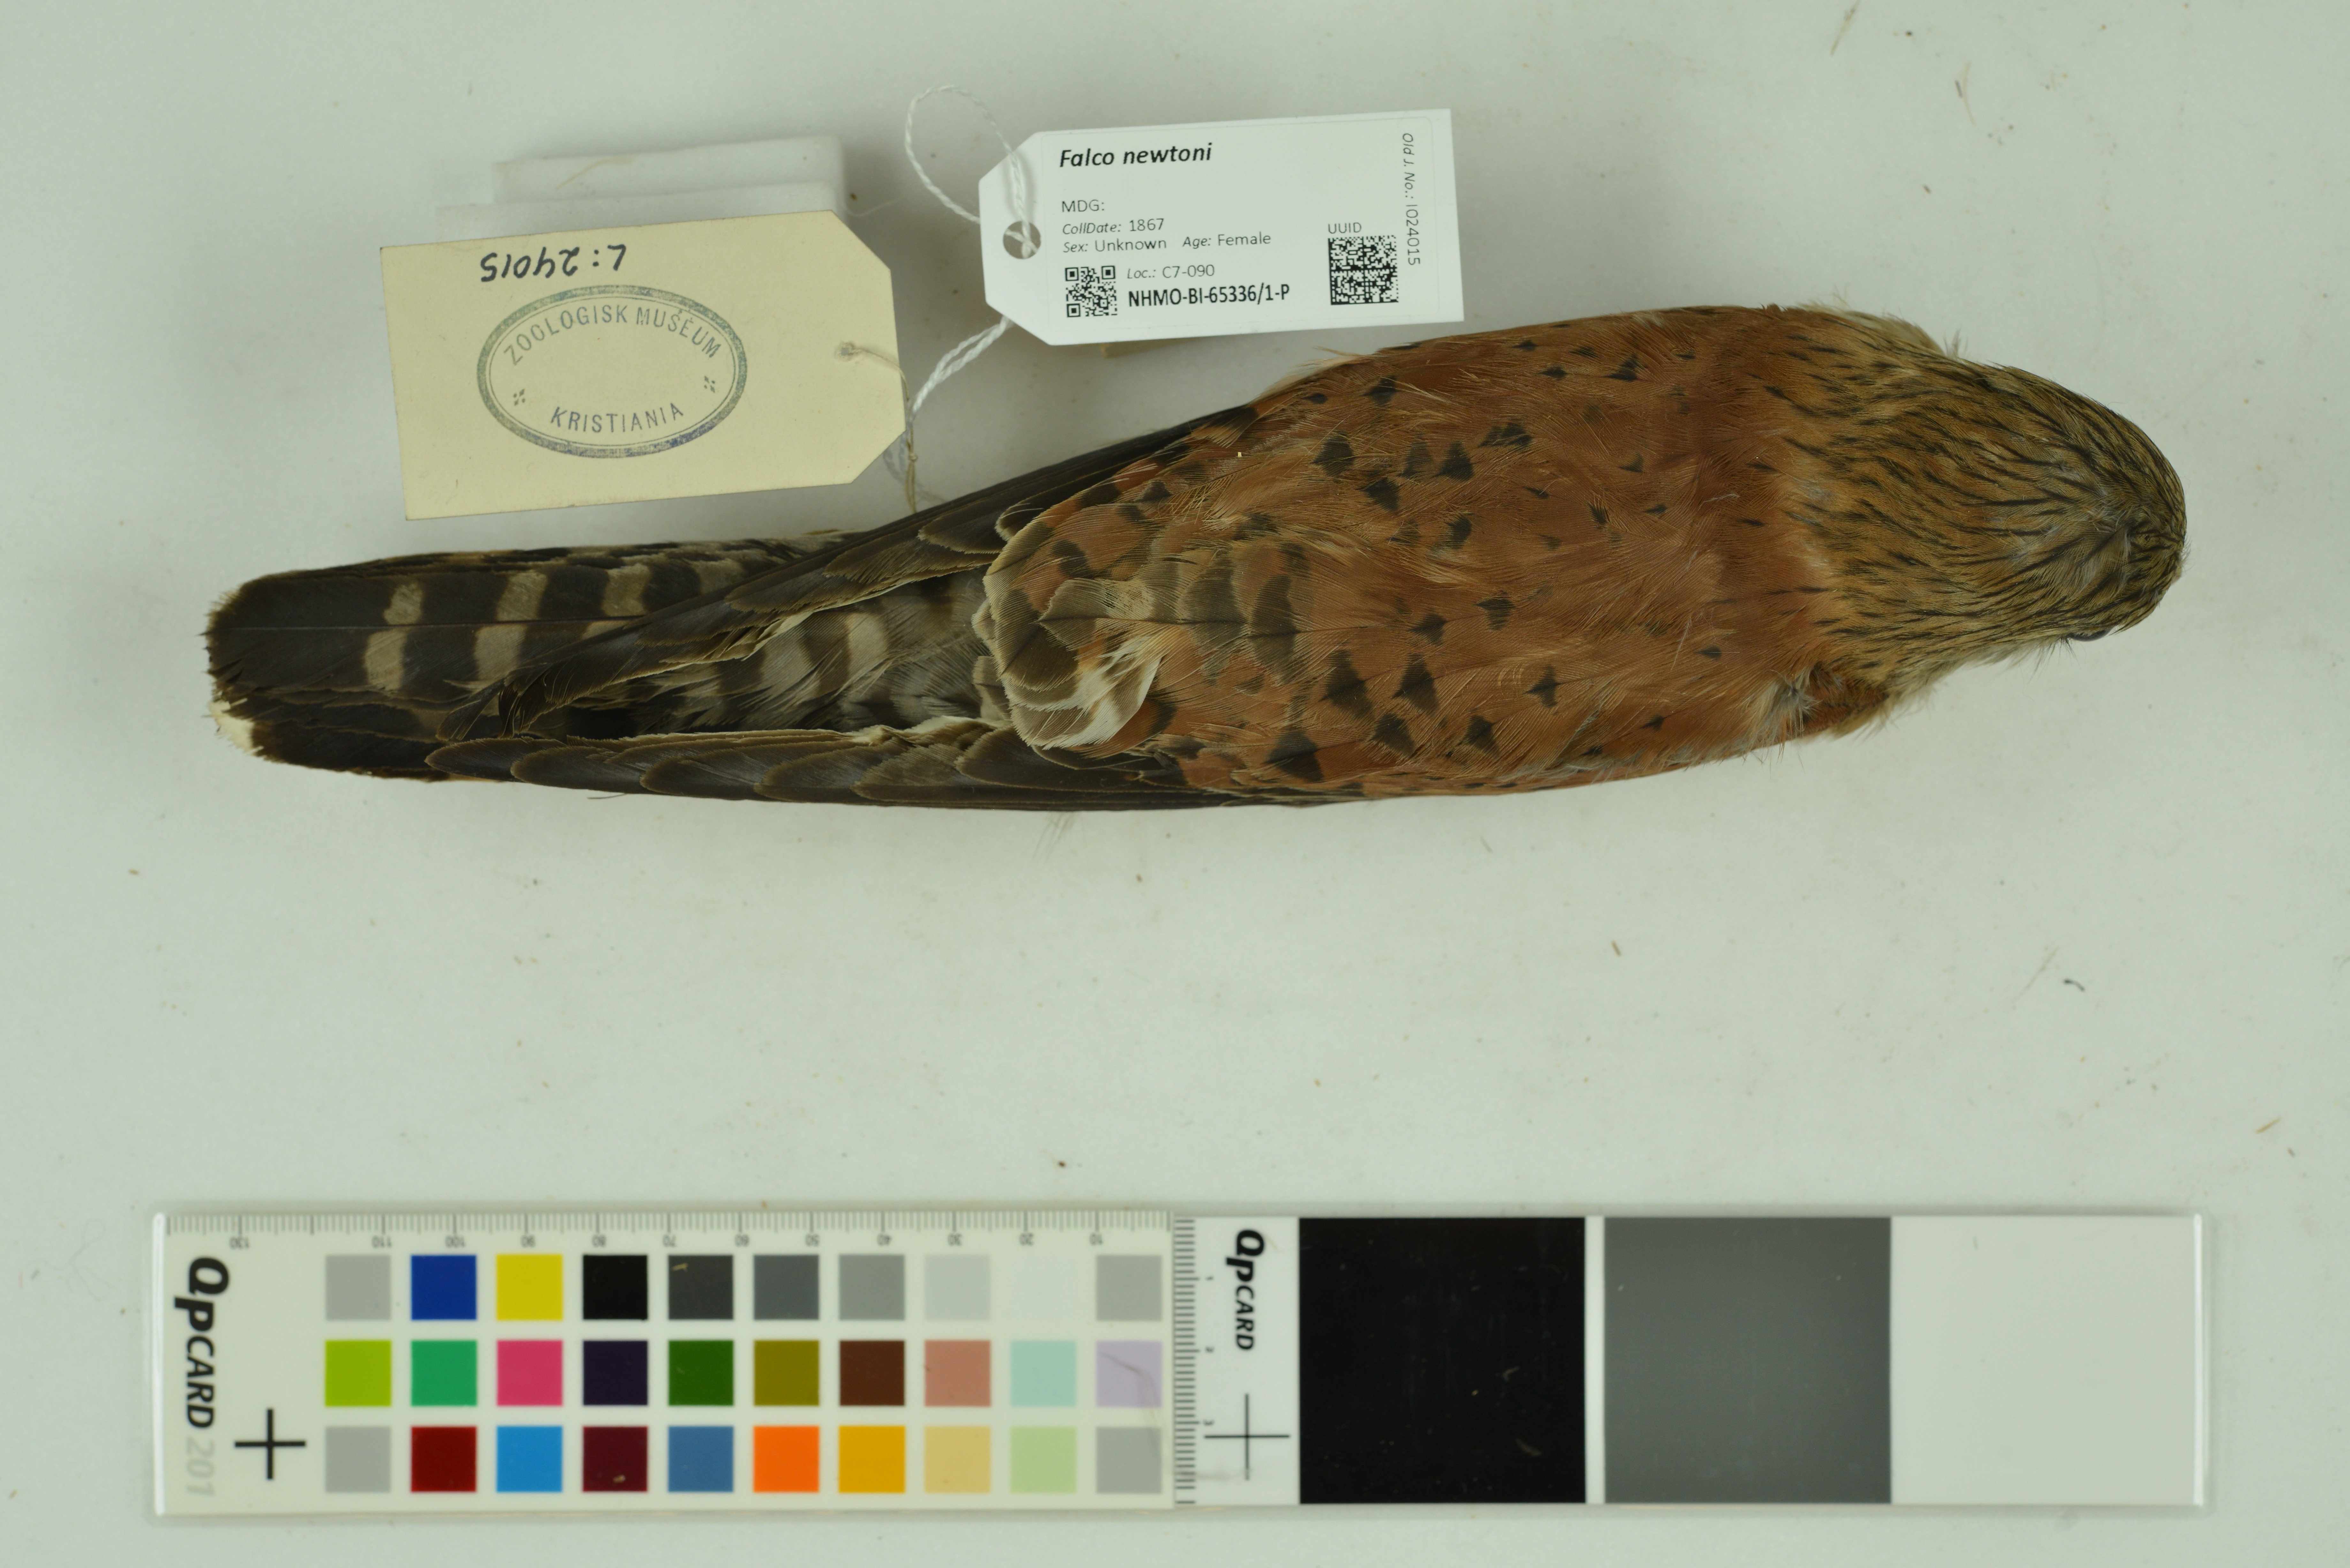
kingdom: Animalia
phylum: Chordata
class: Aves
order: Falconiformes
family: Falconidae
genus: Falco
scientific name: Falco newtoni
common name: Malagasy kestrel
